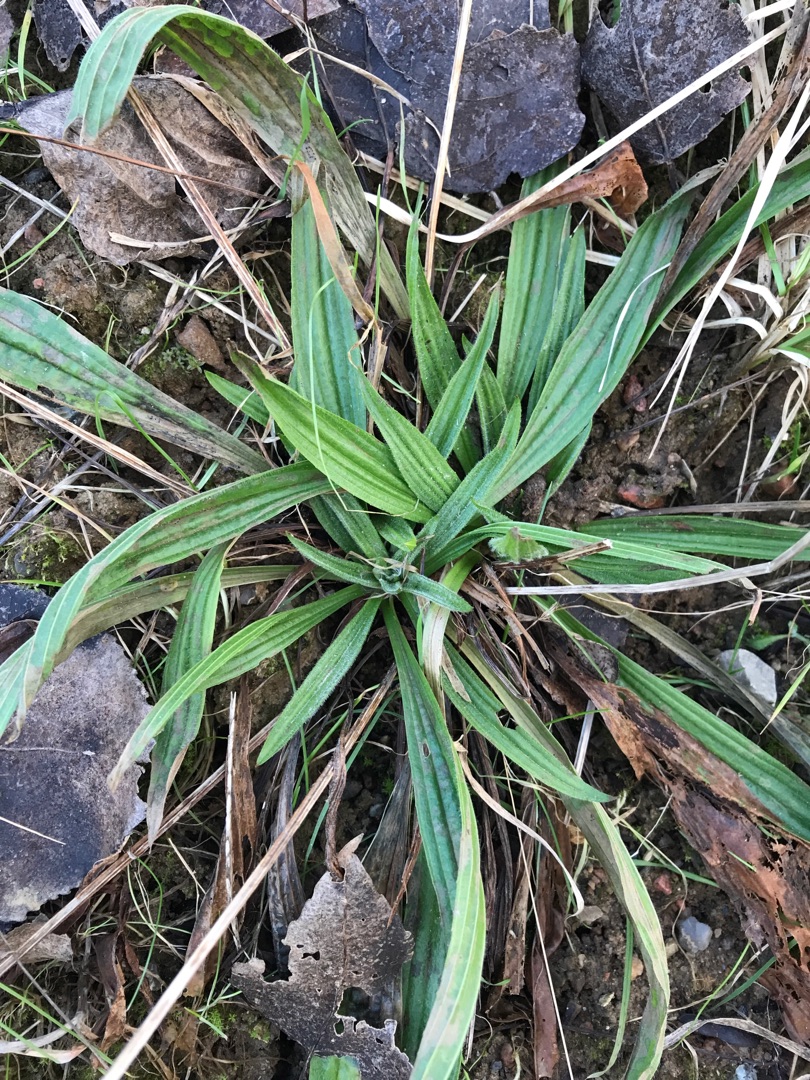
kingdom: Plantae
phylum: Tracheophyta
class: Magnoliopsida
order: Lamiales
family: Plantaginaceae
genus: Plantago
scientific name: Plantago lanceolata
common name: Lancet-vejbred
